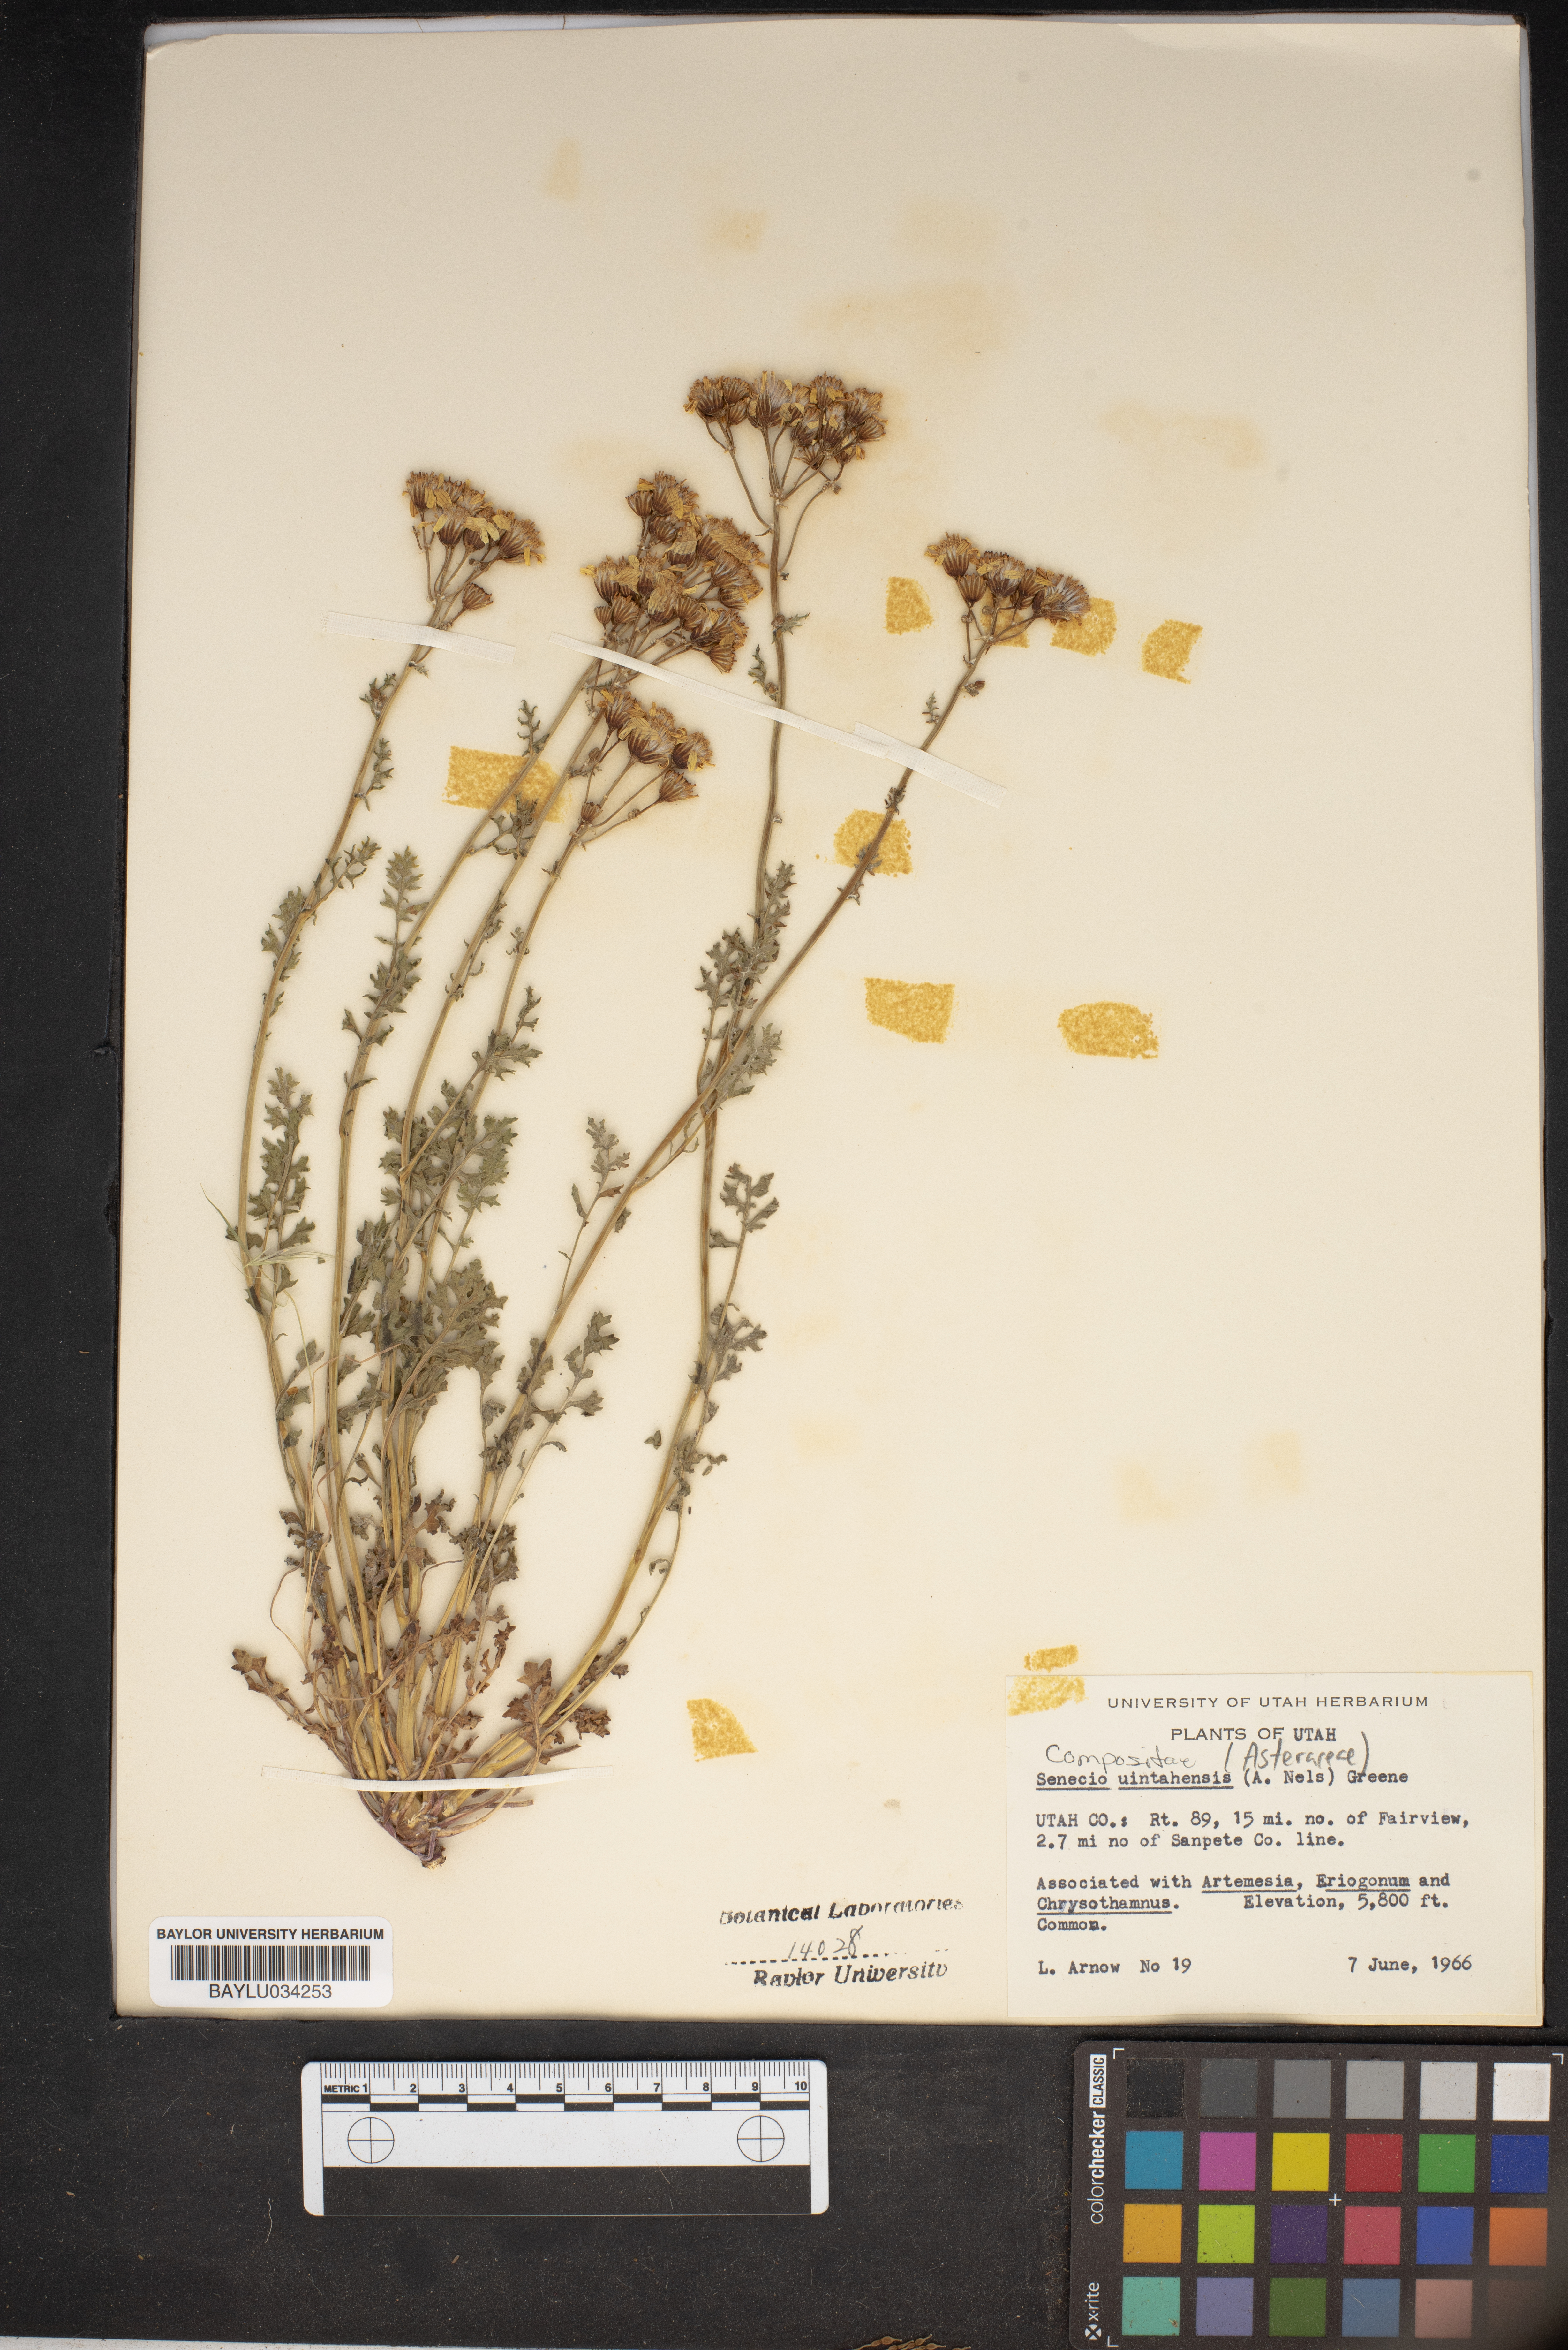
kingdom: Plantae
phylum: Tracheophyta
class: Magnoliopsida
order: Asterales
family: Asteraceae
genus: Packera
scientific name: Packera multilobata
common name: Lobe-leaf groundsel
